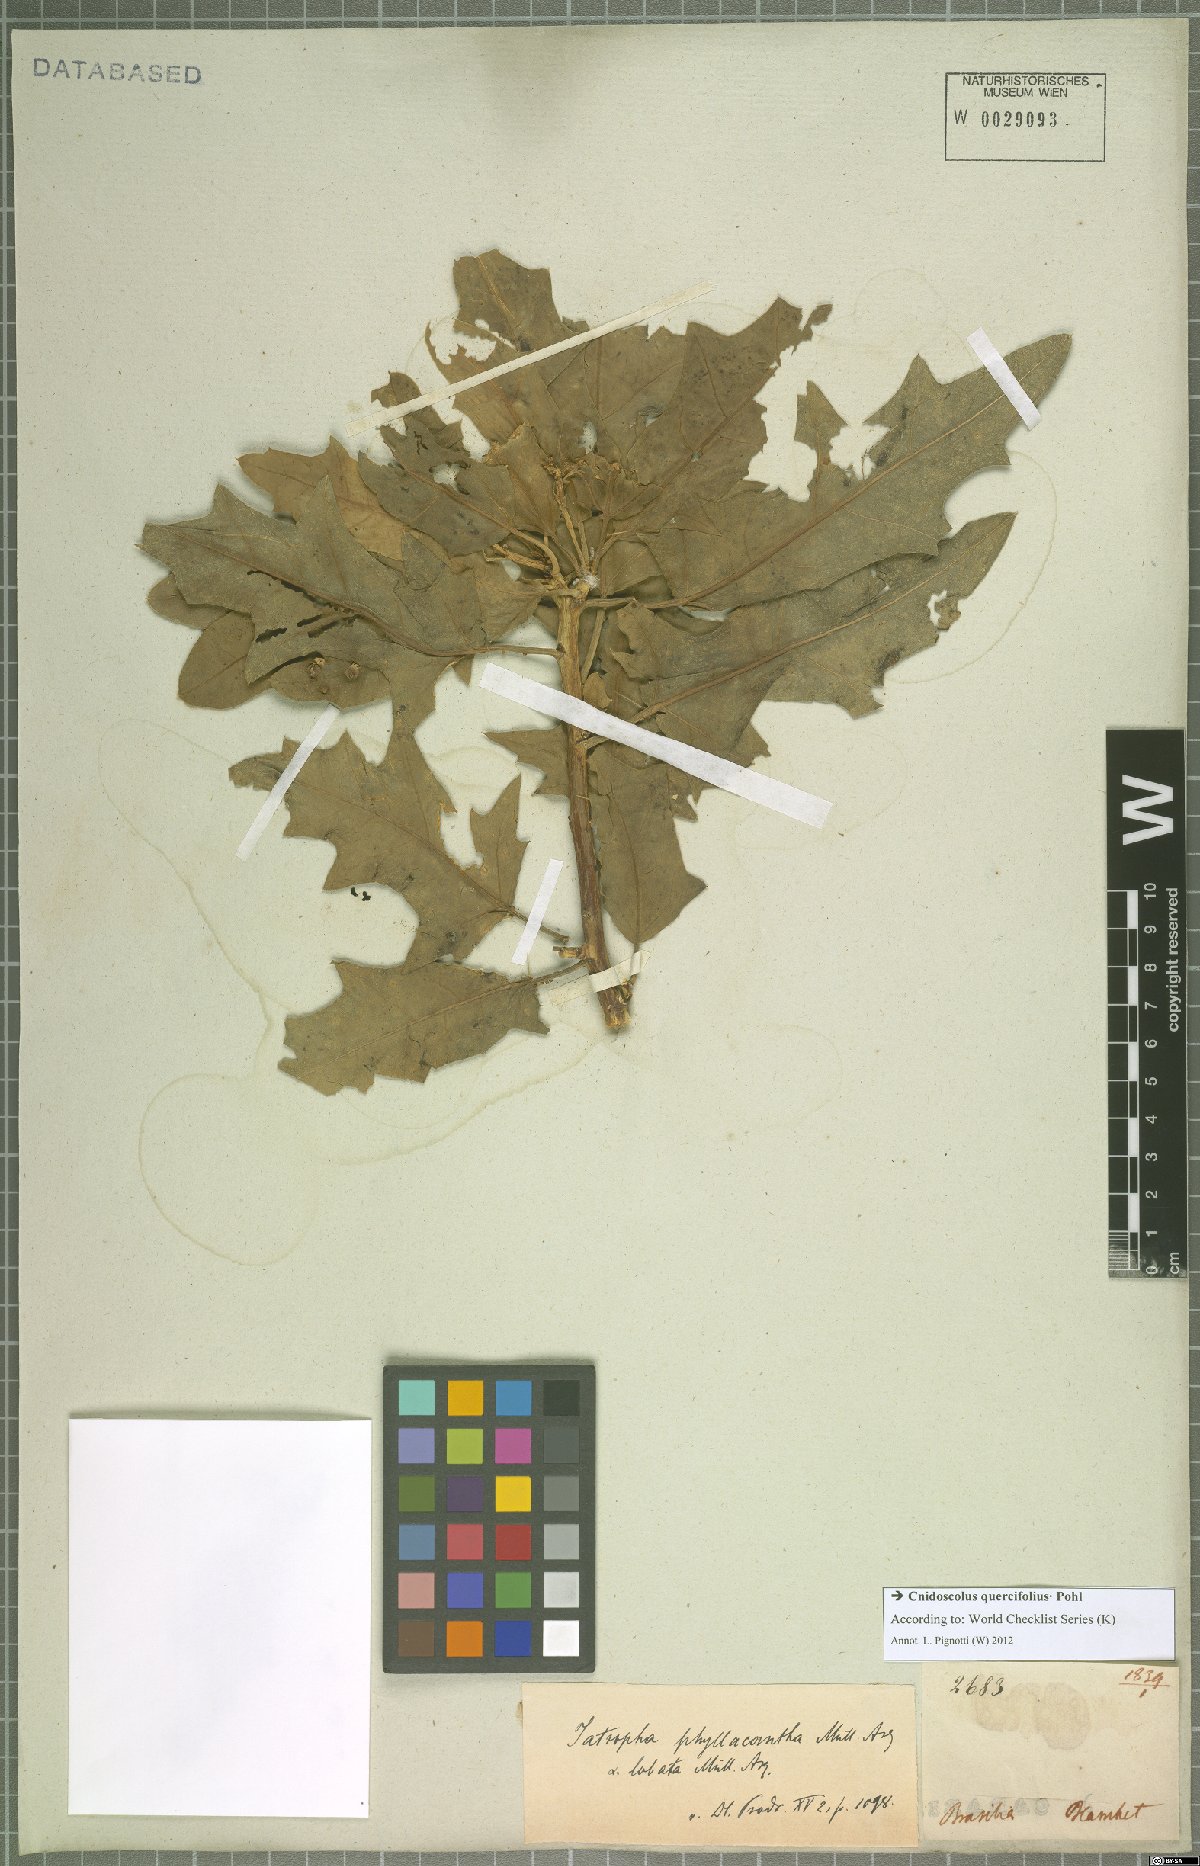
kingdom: Plantae
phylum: Tracheophyta
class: Magnoliopsida
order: Malpighiales
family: Euphorbiaceae
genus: Cnidoscolus
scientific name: Cnidoscolus quercifolius
